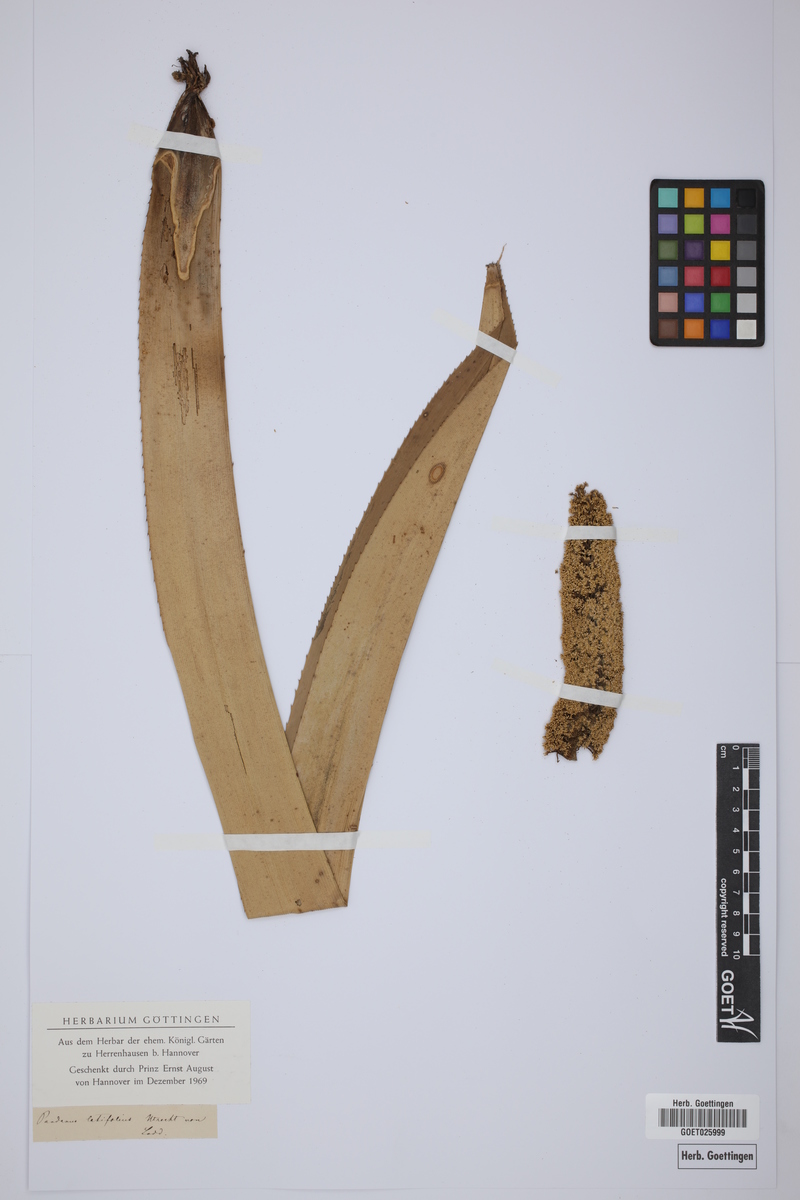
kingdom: Plantae
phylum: Tracheophyta
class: Liliopsida
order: Pandanales
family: Pandanaceae
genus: Pandanus
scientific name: Pandanus dubius
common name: Knob-fruited screwpine
